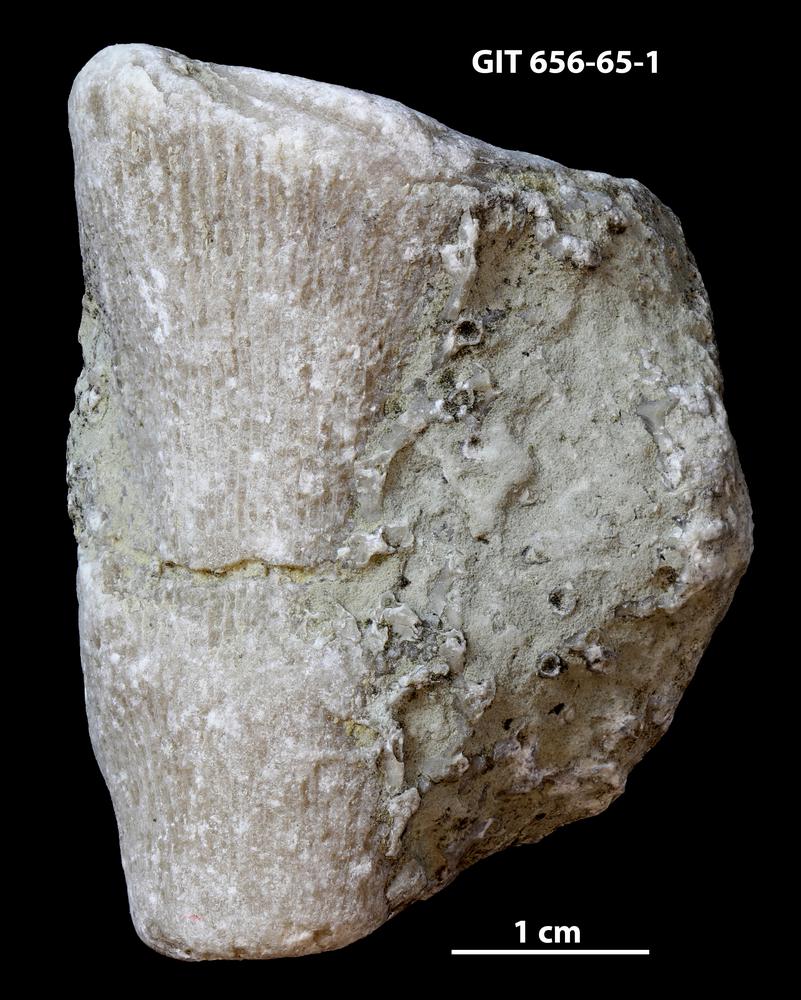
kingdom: Animalia
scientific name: Animalia
